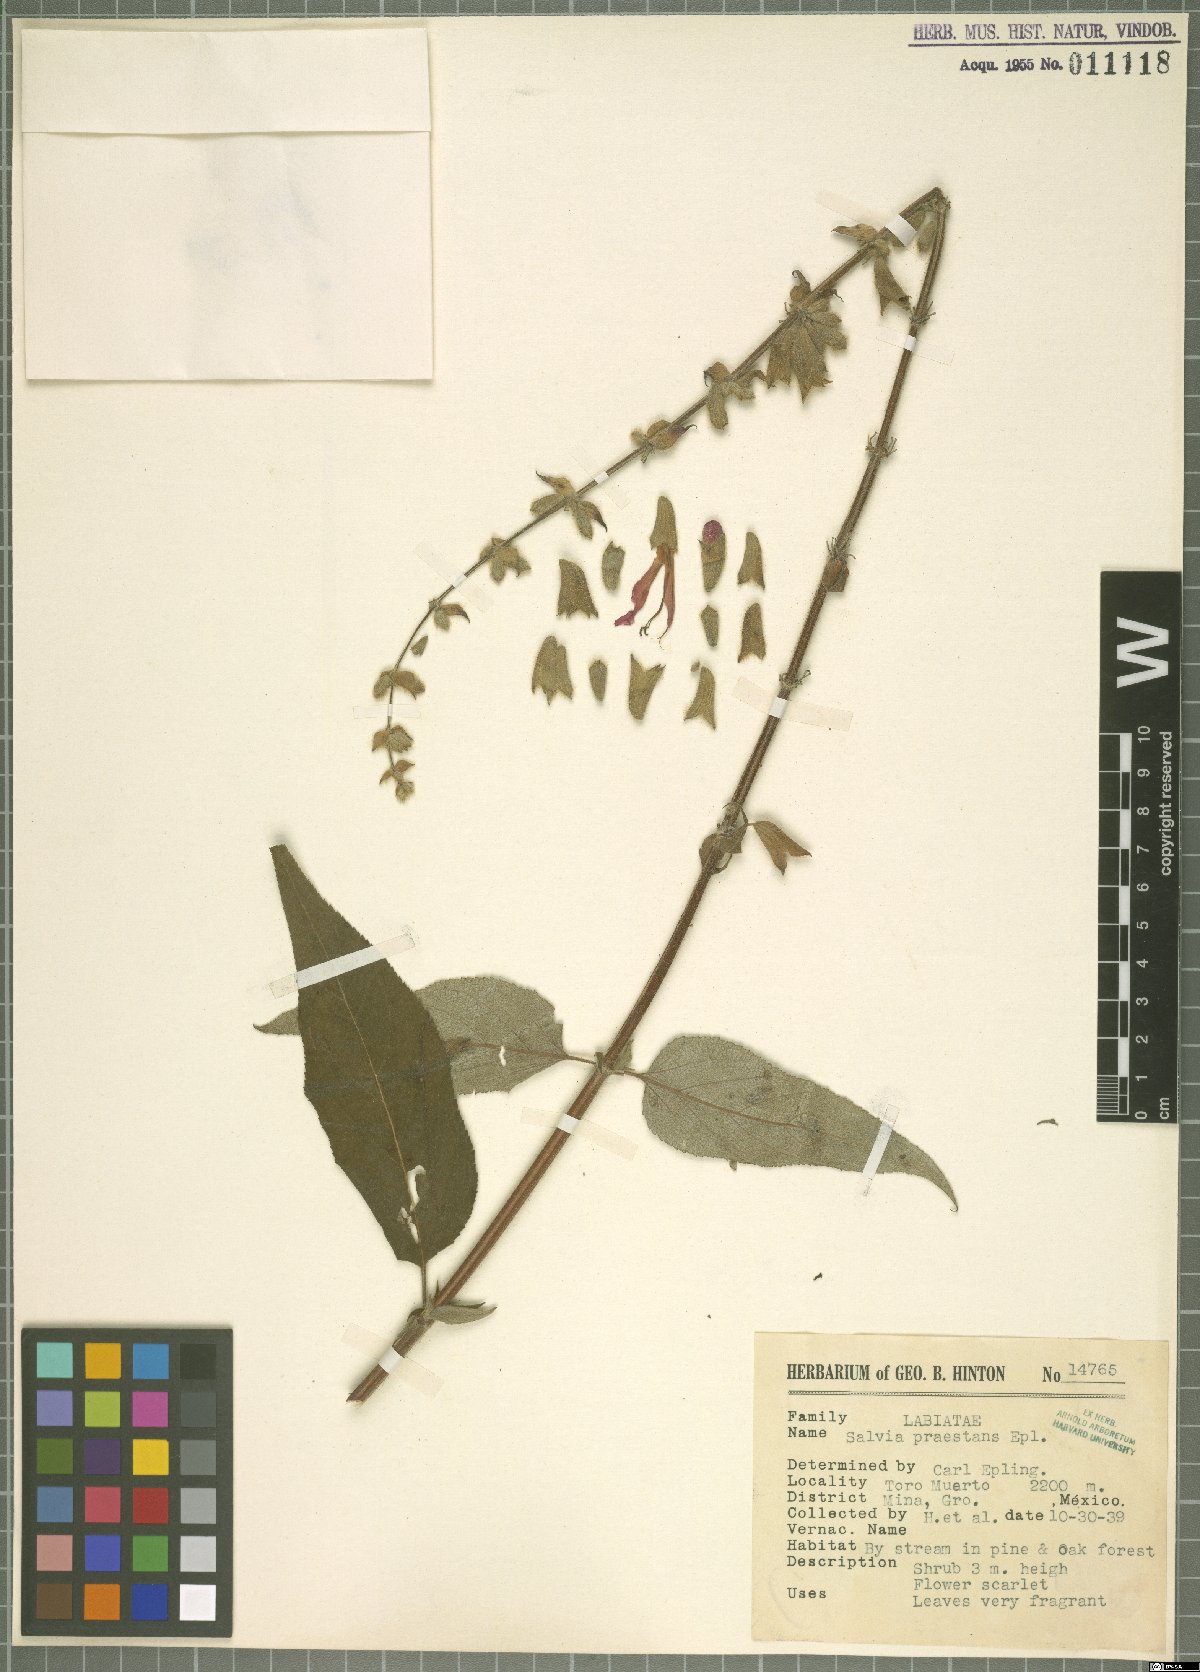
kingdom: Plantae
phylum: Tracheophyta
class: Magnoliopsida
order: Lamiales
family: Lamiaceae
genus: Salvia
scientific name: Salvia praestans
